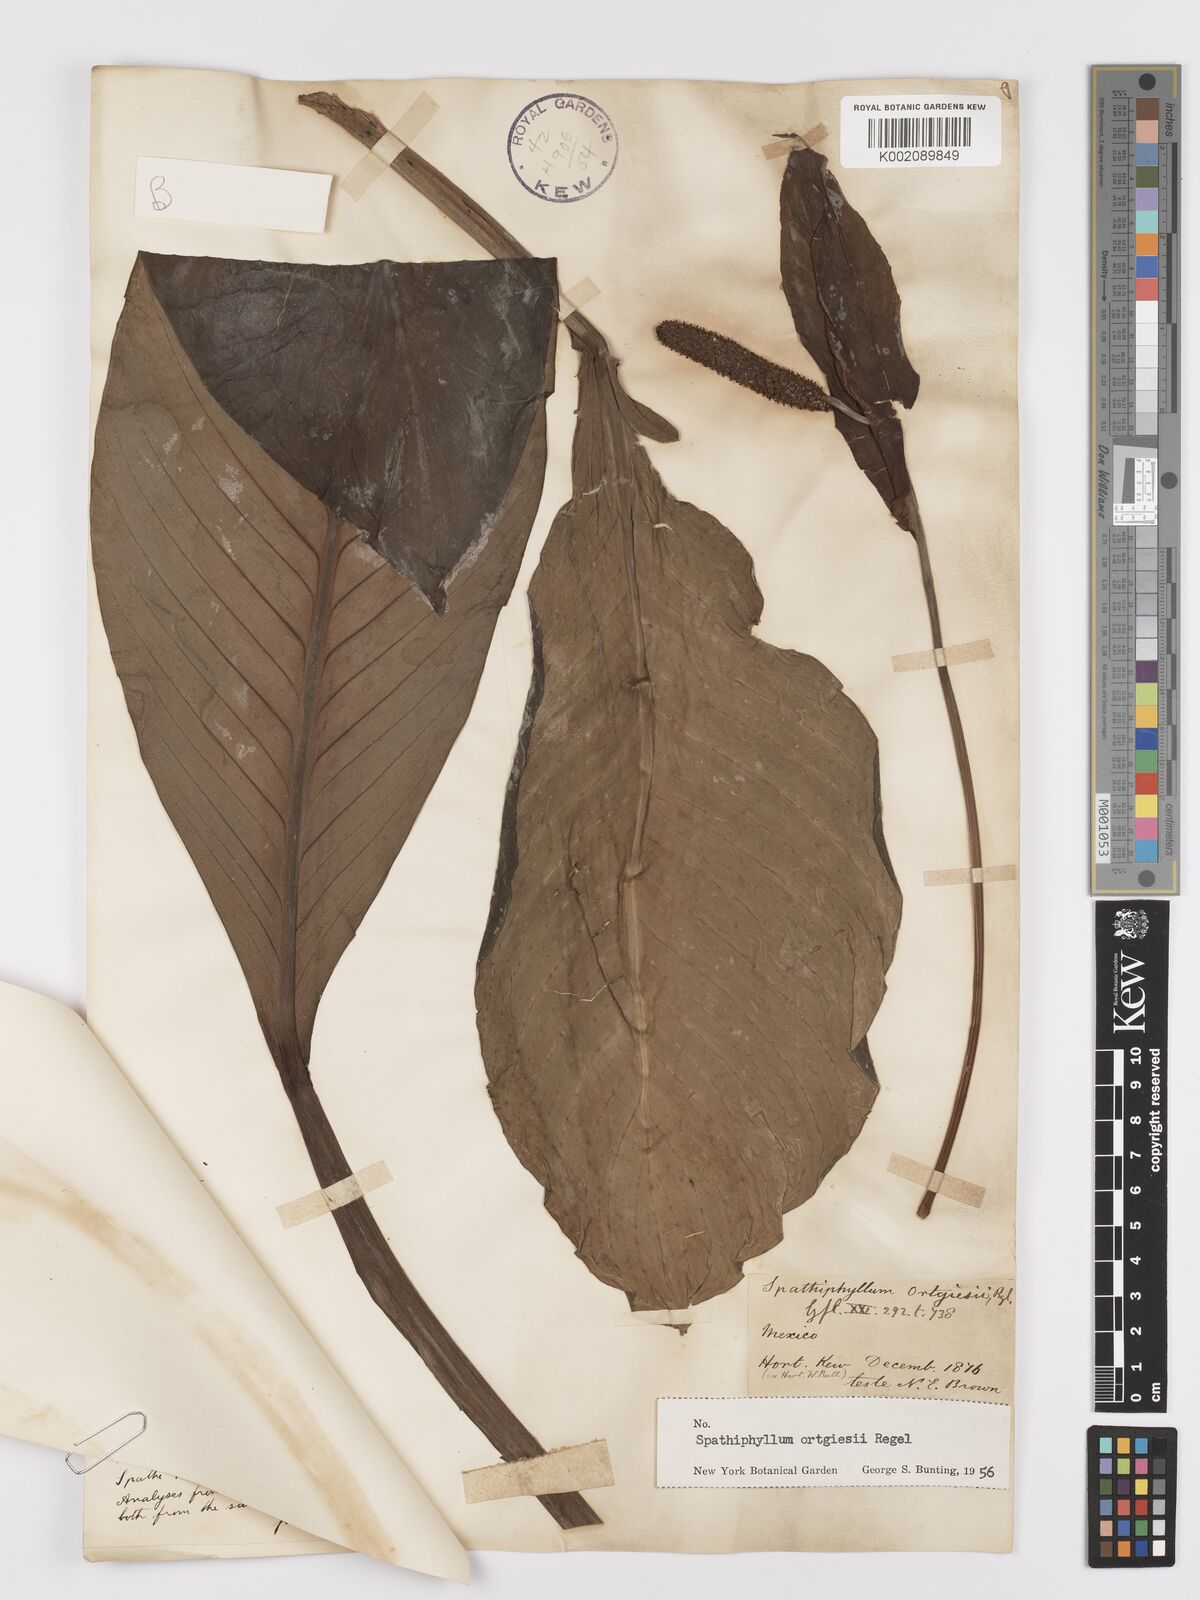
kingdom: Plantae
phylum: Tracheophyta
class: Liliopsida
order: Alismatales
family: Araceae
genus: Spathiphyllum
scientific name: Spathiphyllum ortgiesii
